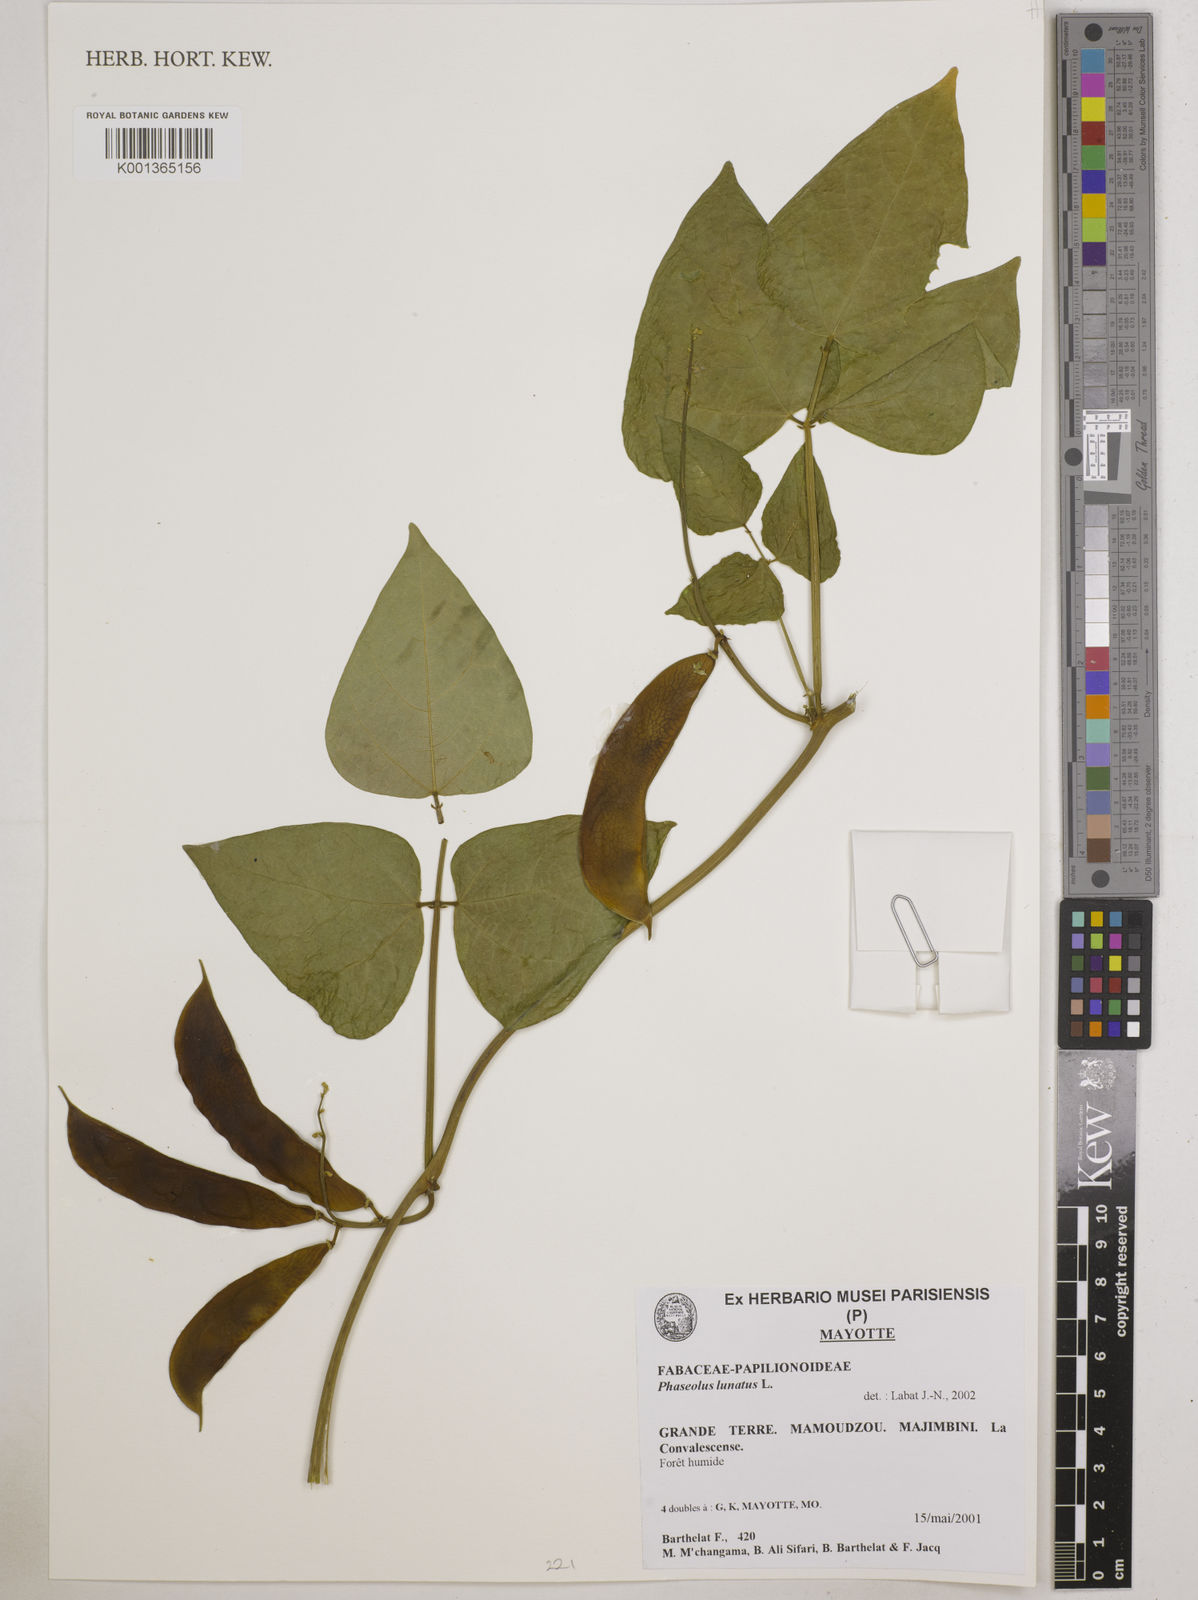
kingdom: Plantae
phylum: Tracheophyta
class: Magnoliopsida
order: Fabales
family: Fabaceae
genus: Phaseolus
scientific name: Phaseolus vulgaris
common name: Bean
